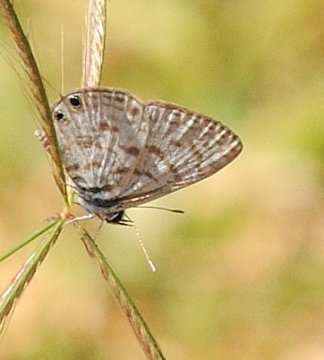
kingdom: Animalia
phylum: Arthropoda
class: Insecta
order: Lepidoptera
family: Lycaenidae
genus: Leptotes
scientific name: Leptotes
